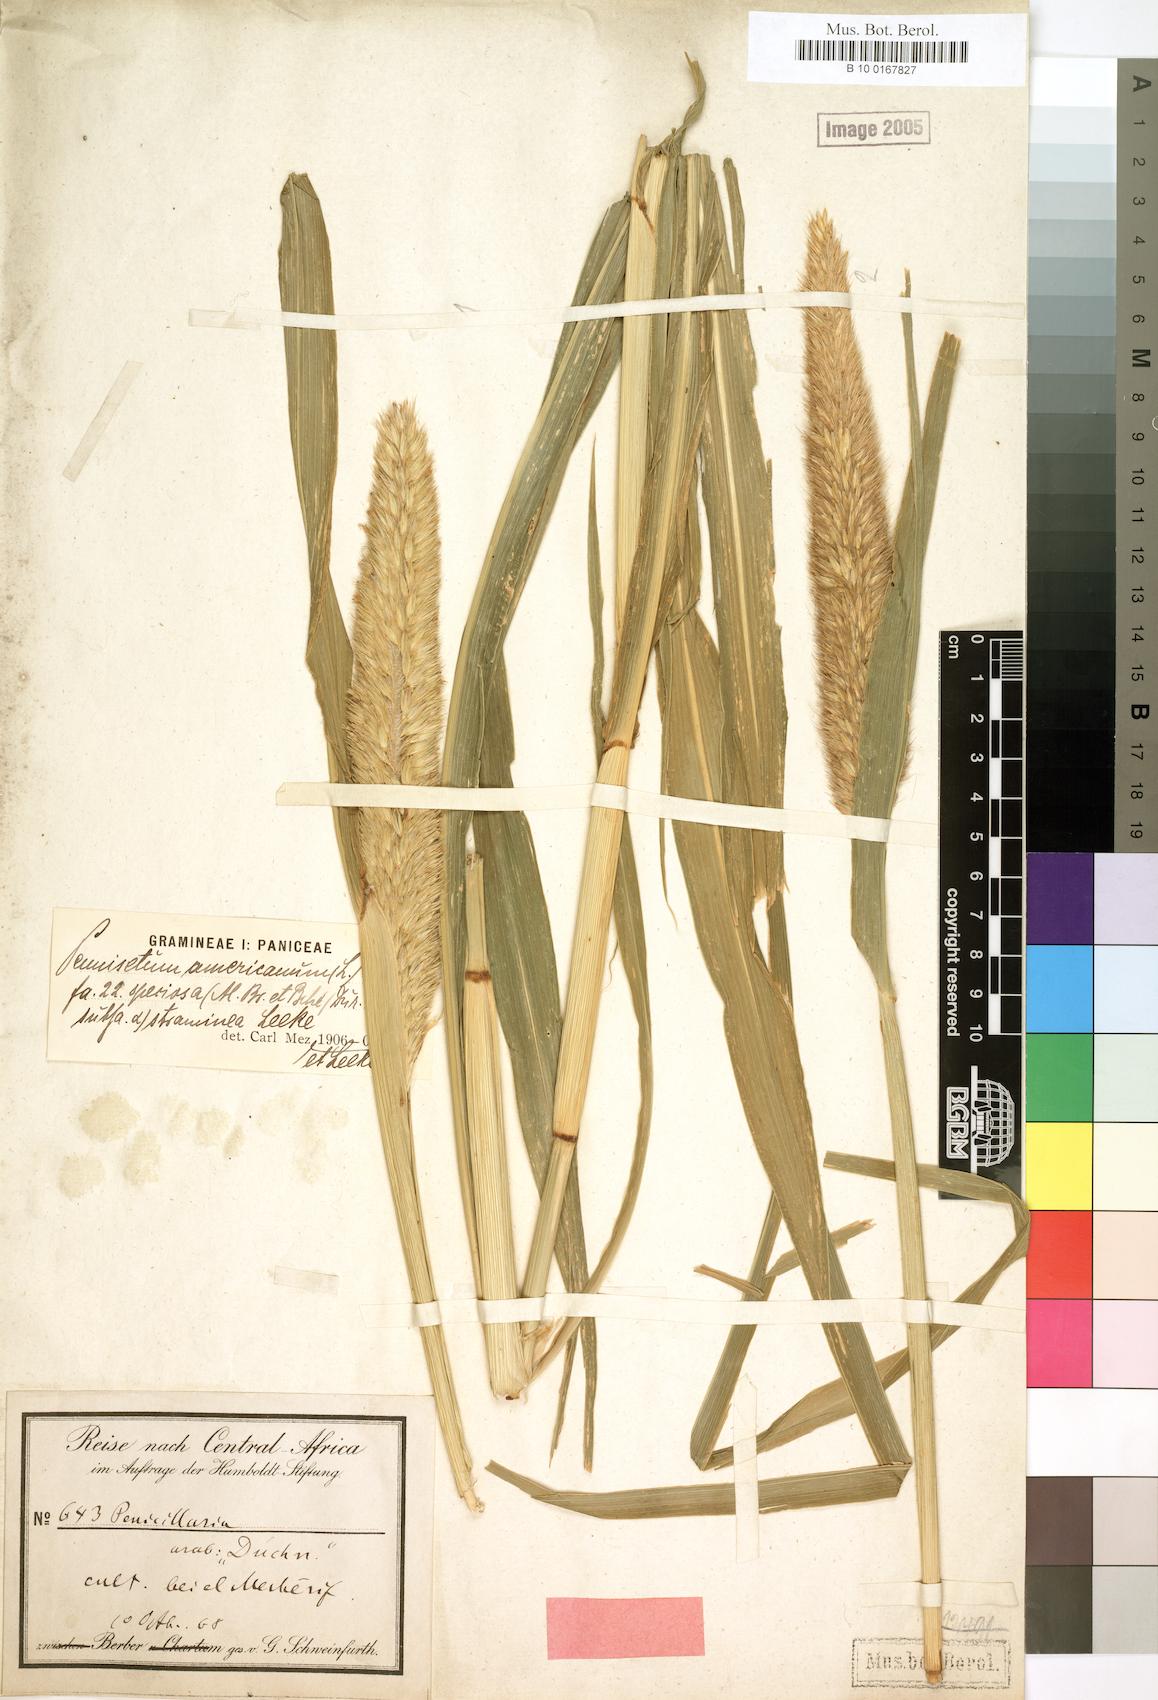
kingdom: Plantae
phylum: Tracheophyta
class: Liliopsida
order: Poales
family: Poaceae
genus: Cenchrus
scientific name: Cenchrus sieberianus
